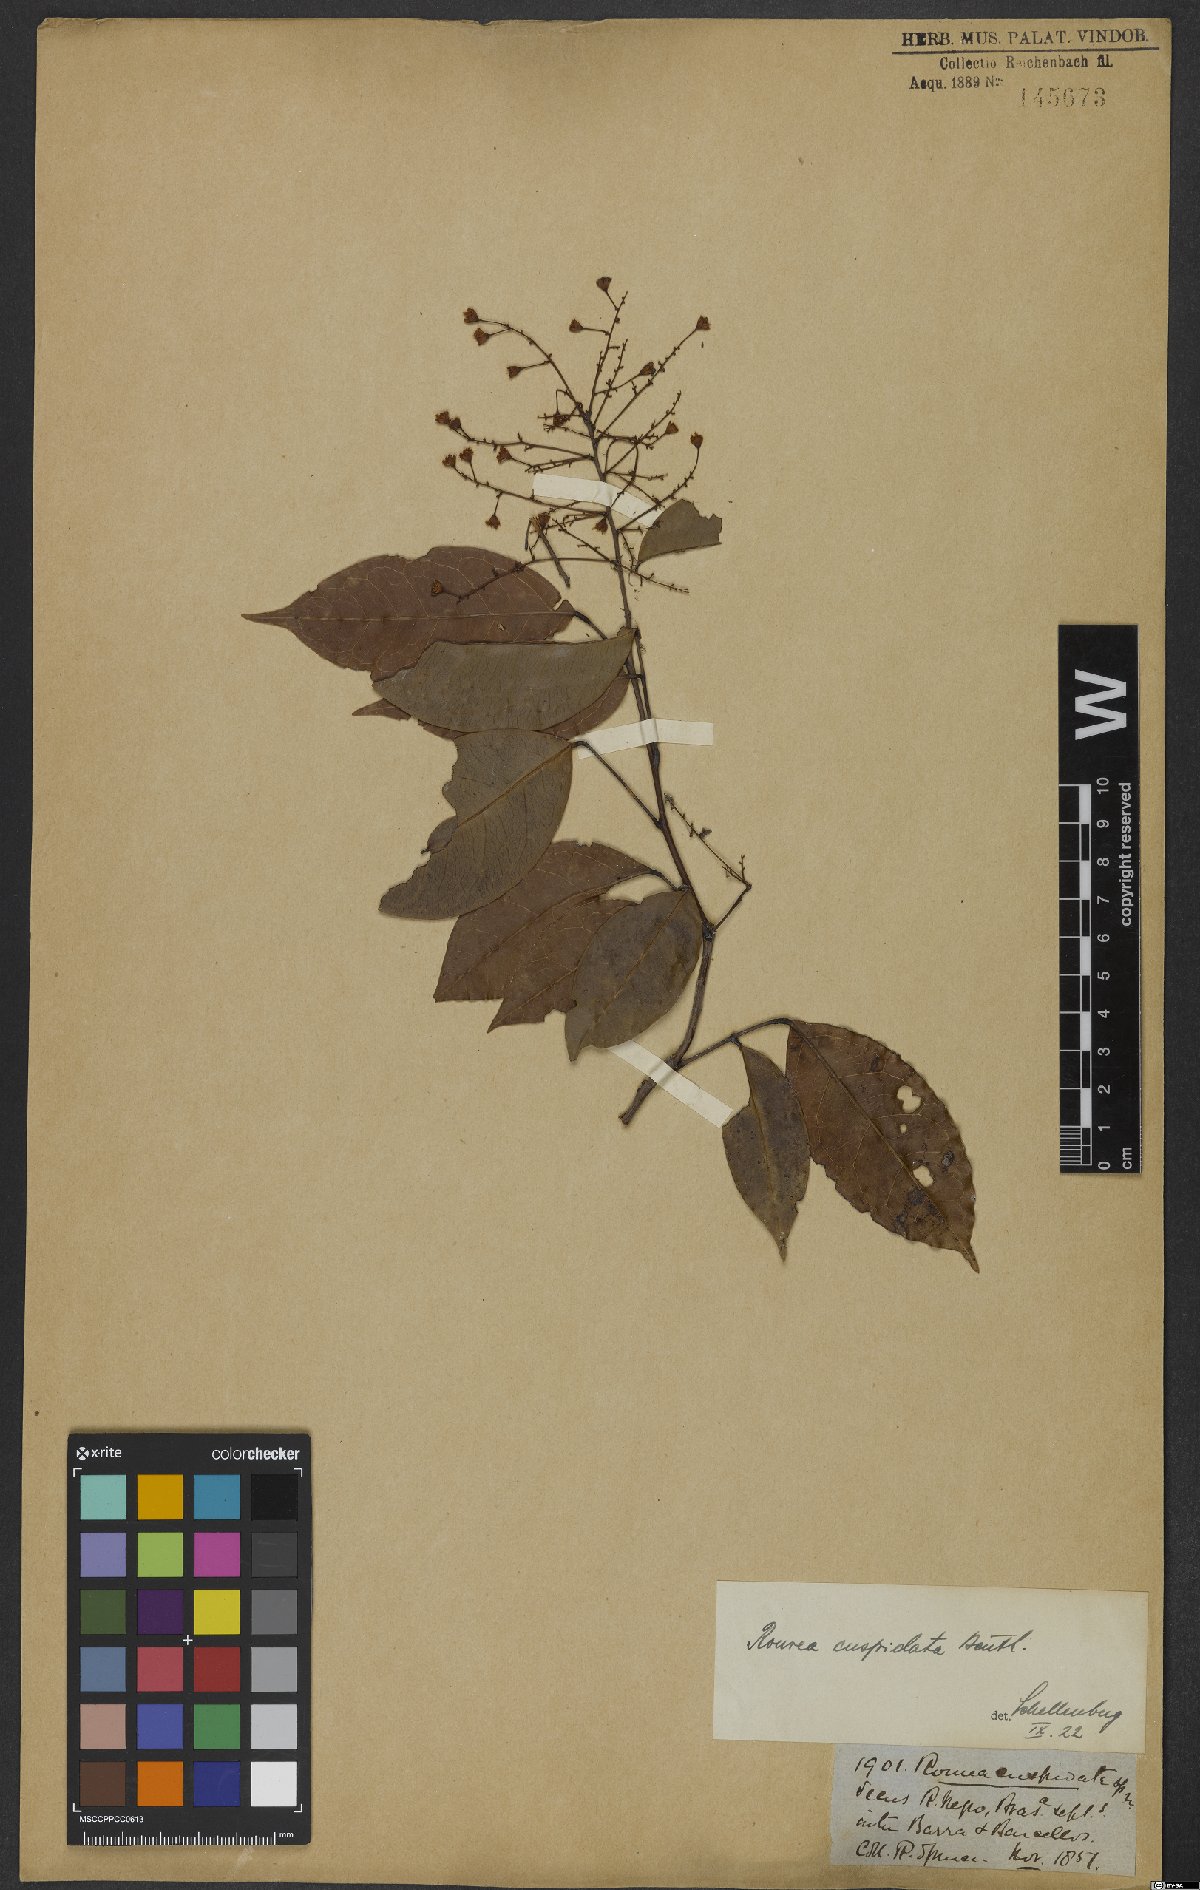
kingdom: Plantae
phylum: Tracheophyta
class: Magnoliopsida
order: Oxalidales
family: Connaraceae
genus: Rourea
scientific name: Rourea cuspidata
